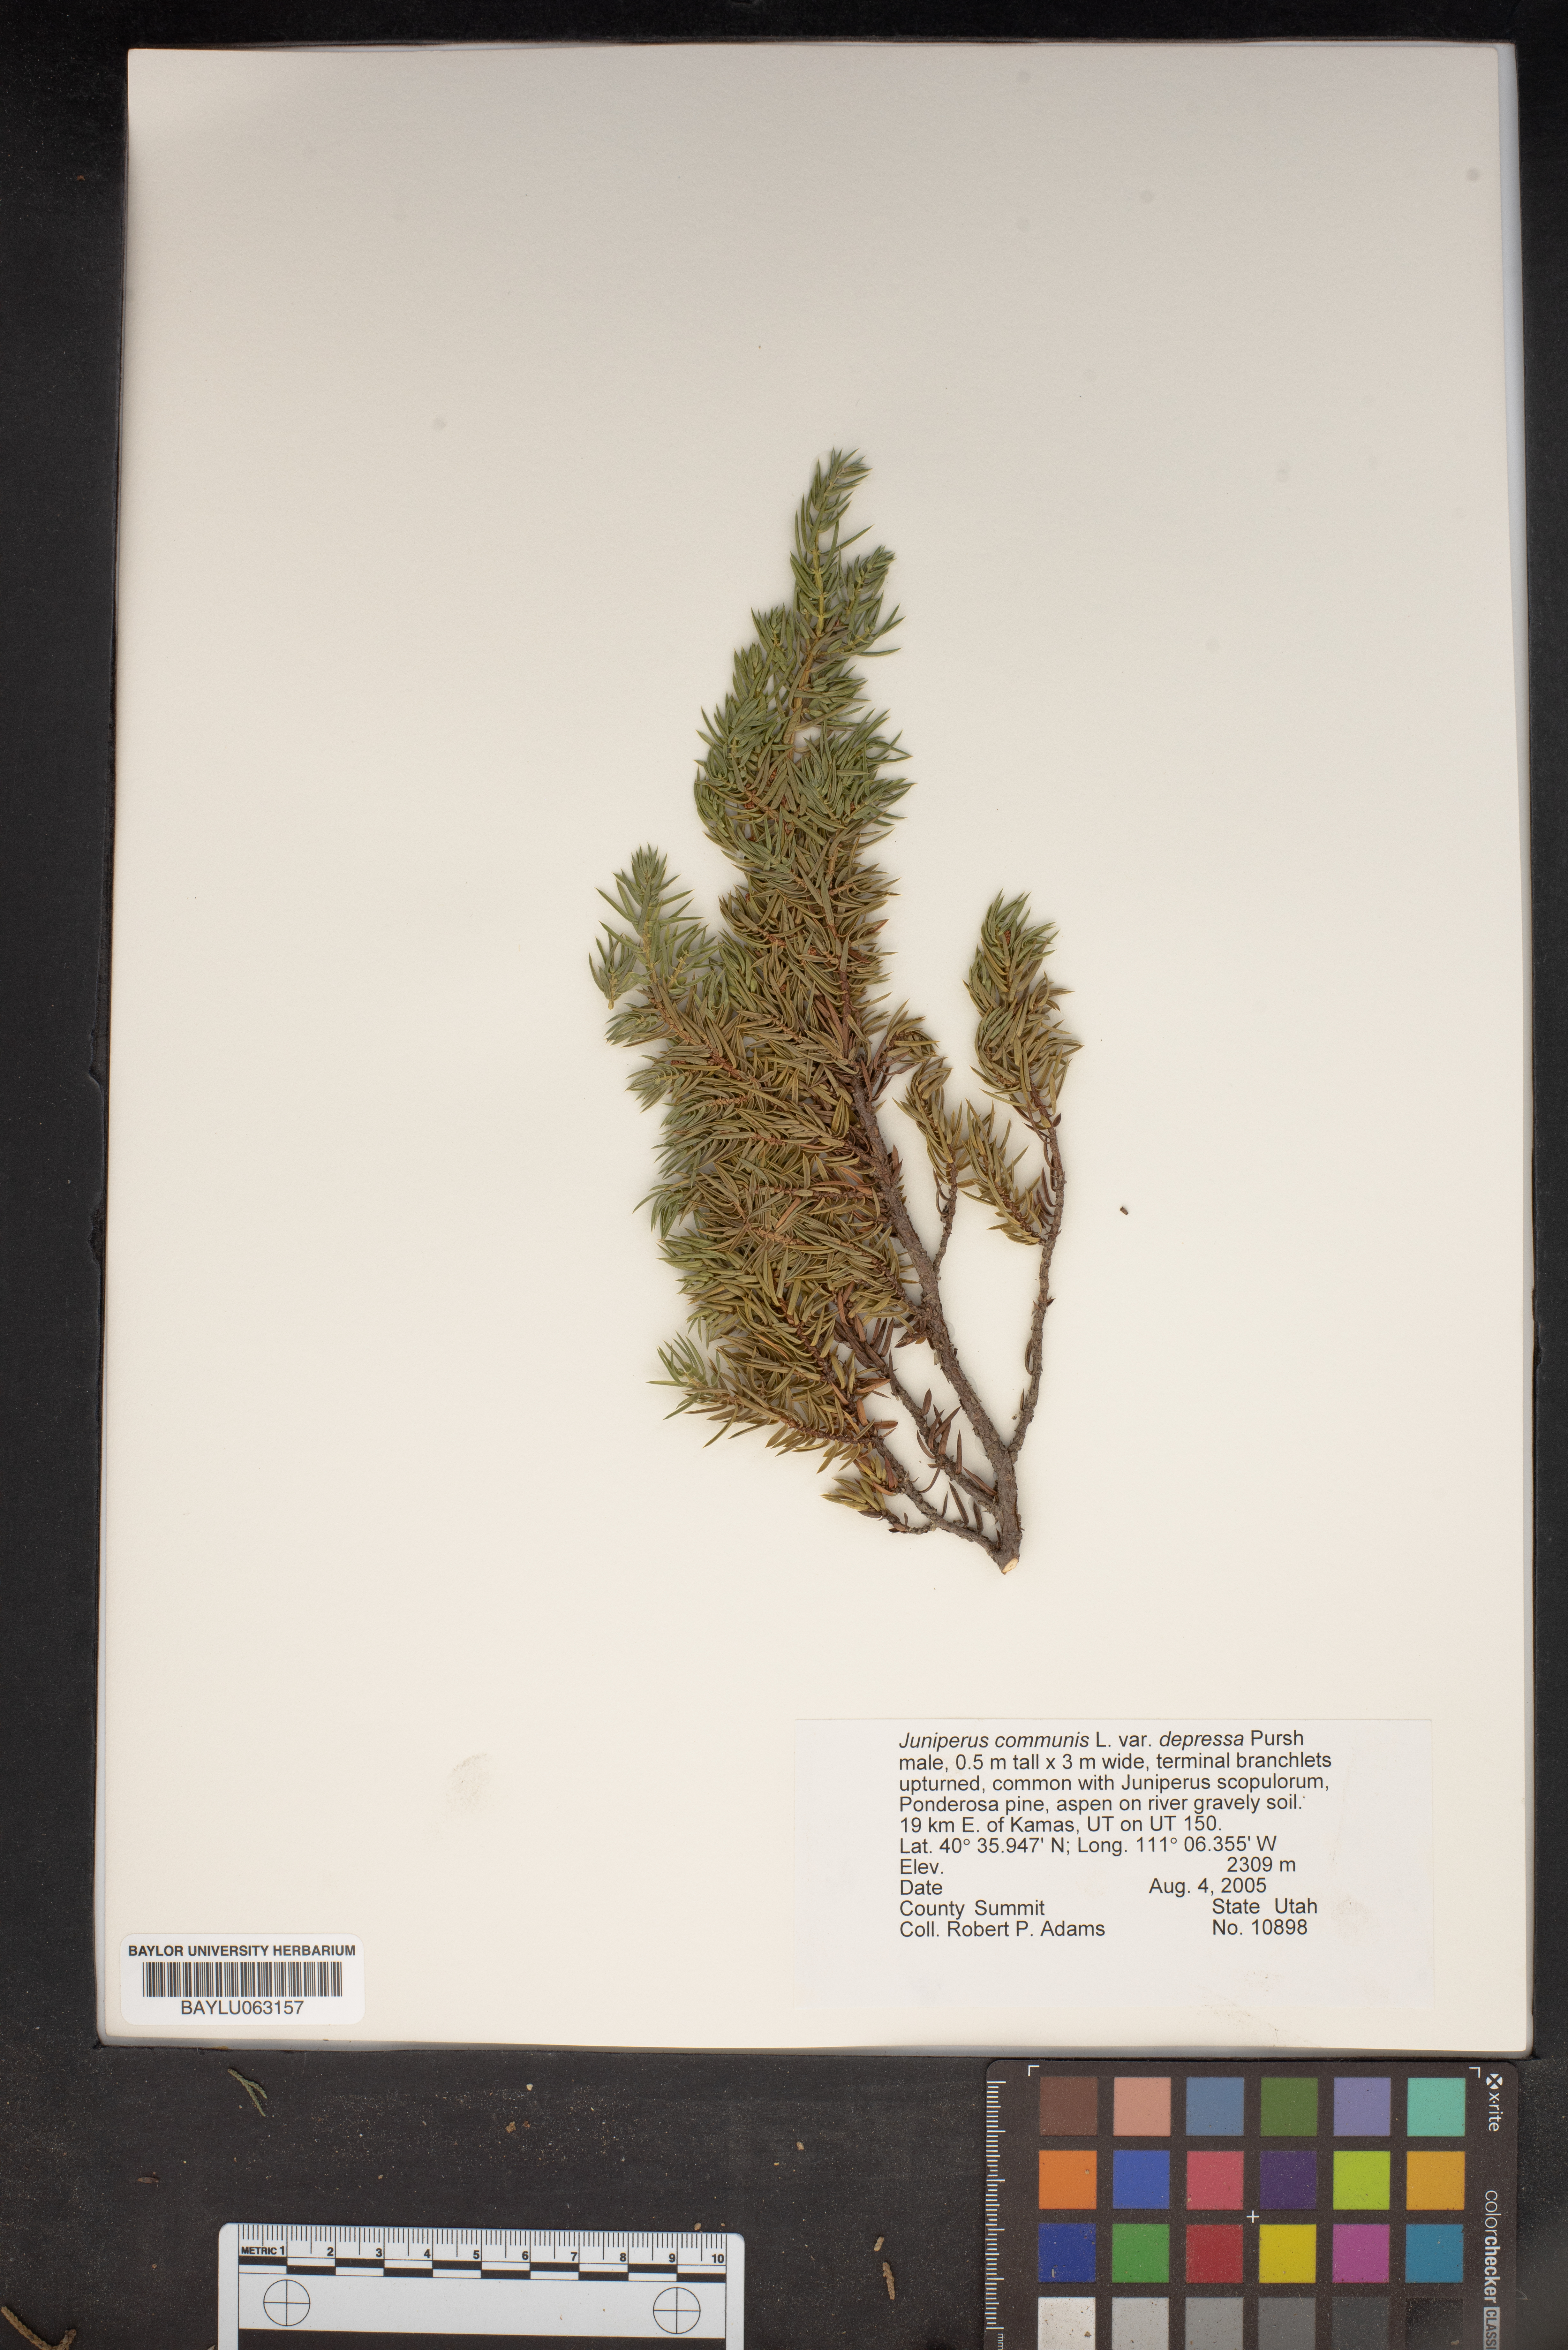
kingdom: Plantae
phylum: Tracheophyta
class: Pinopsida
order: Pinales
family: Cupressaceae
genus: Juniperus
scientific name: Juniperus communis
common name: Common juniper
